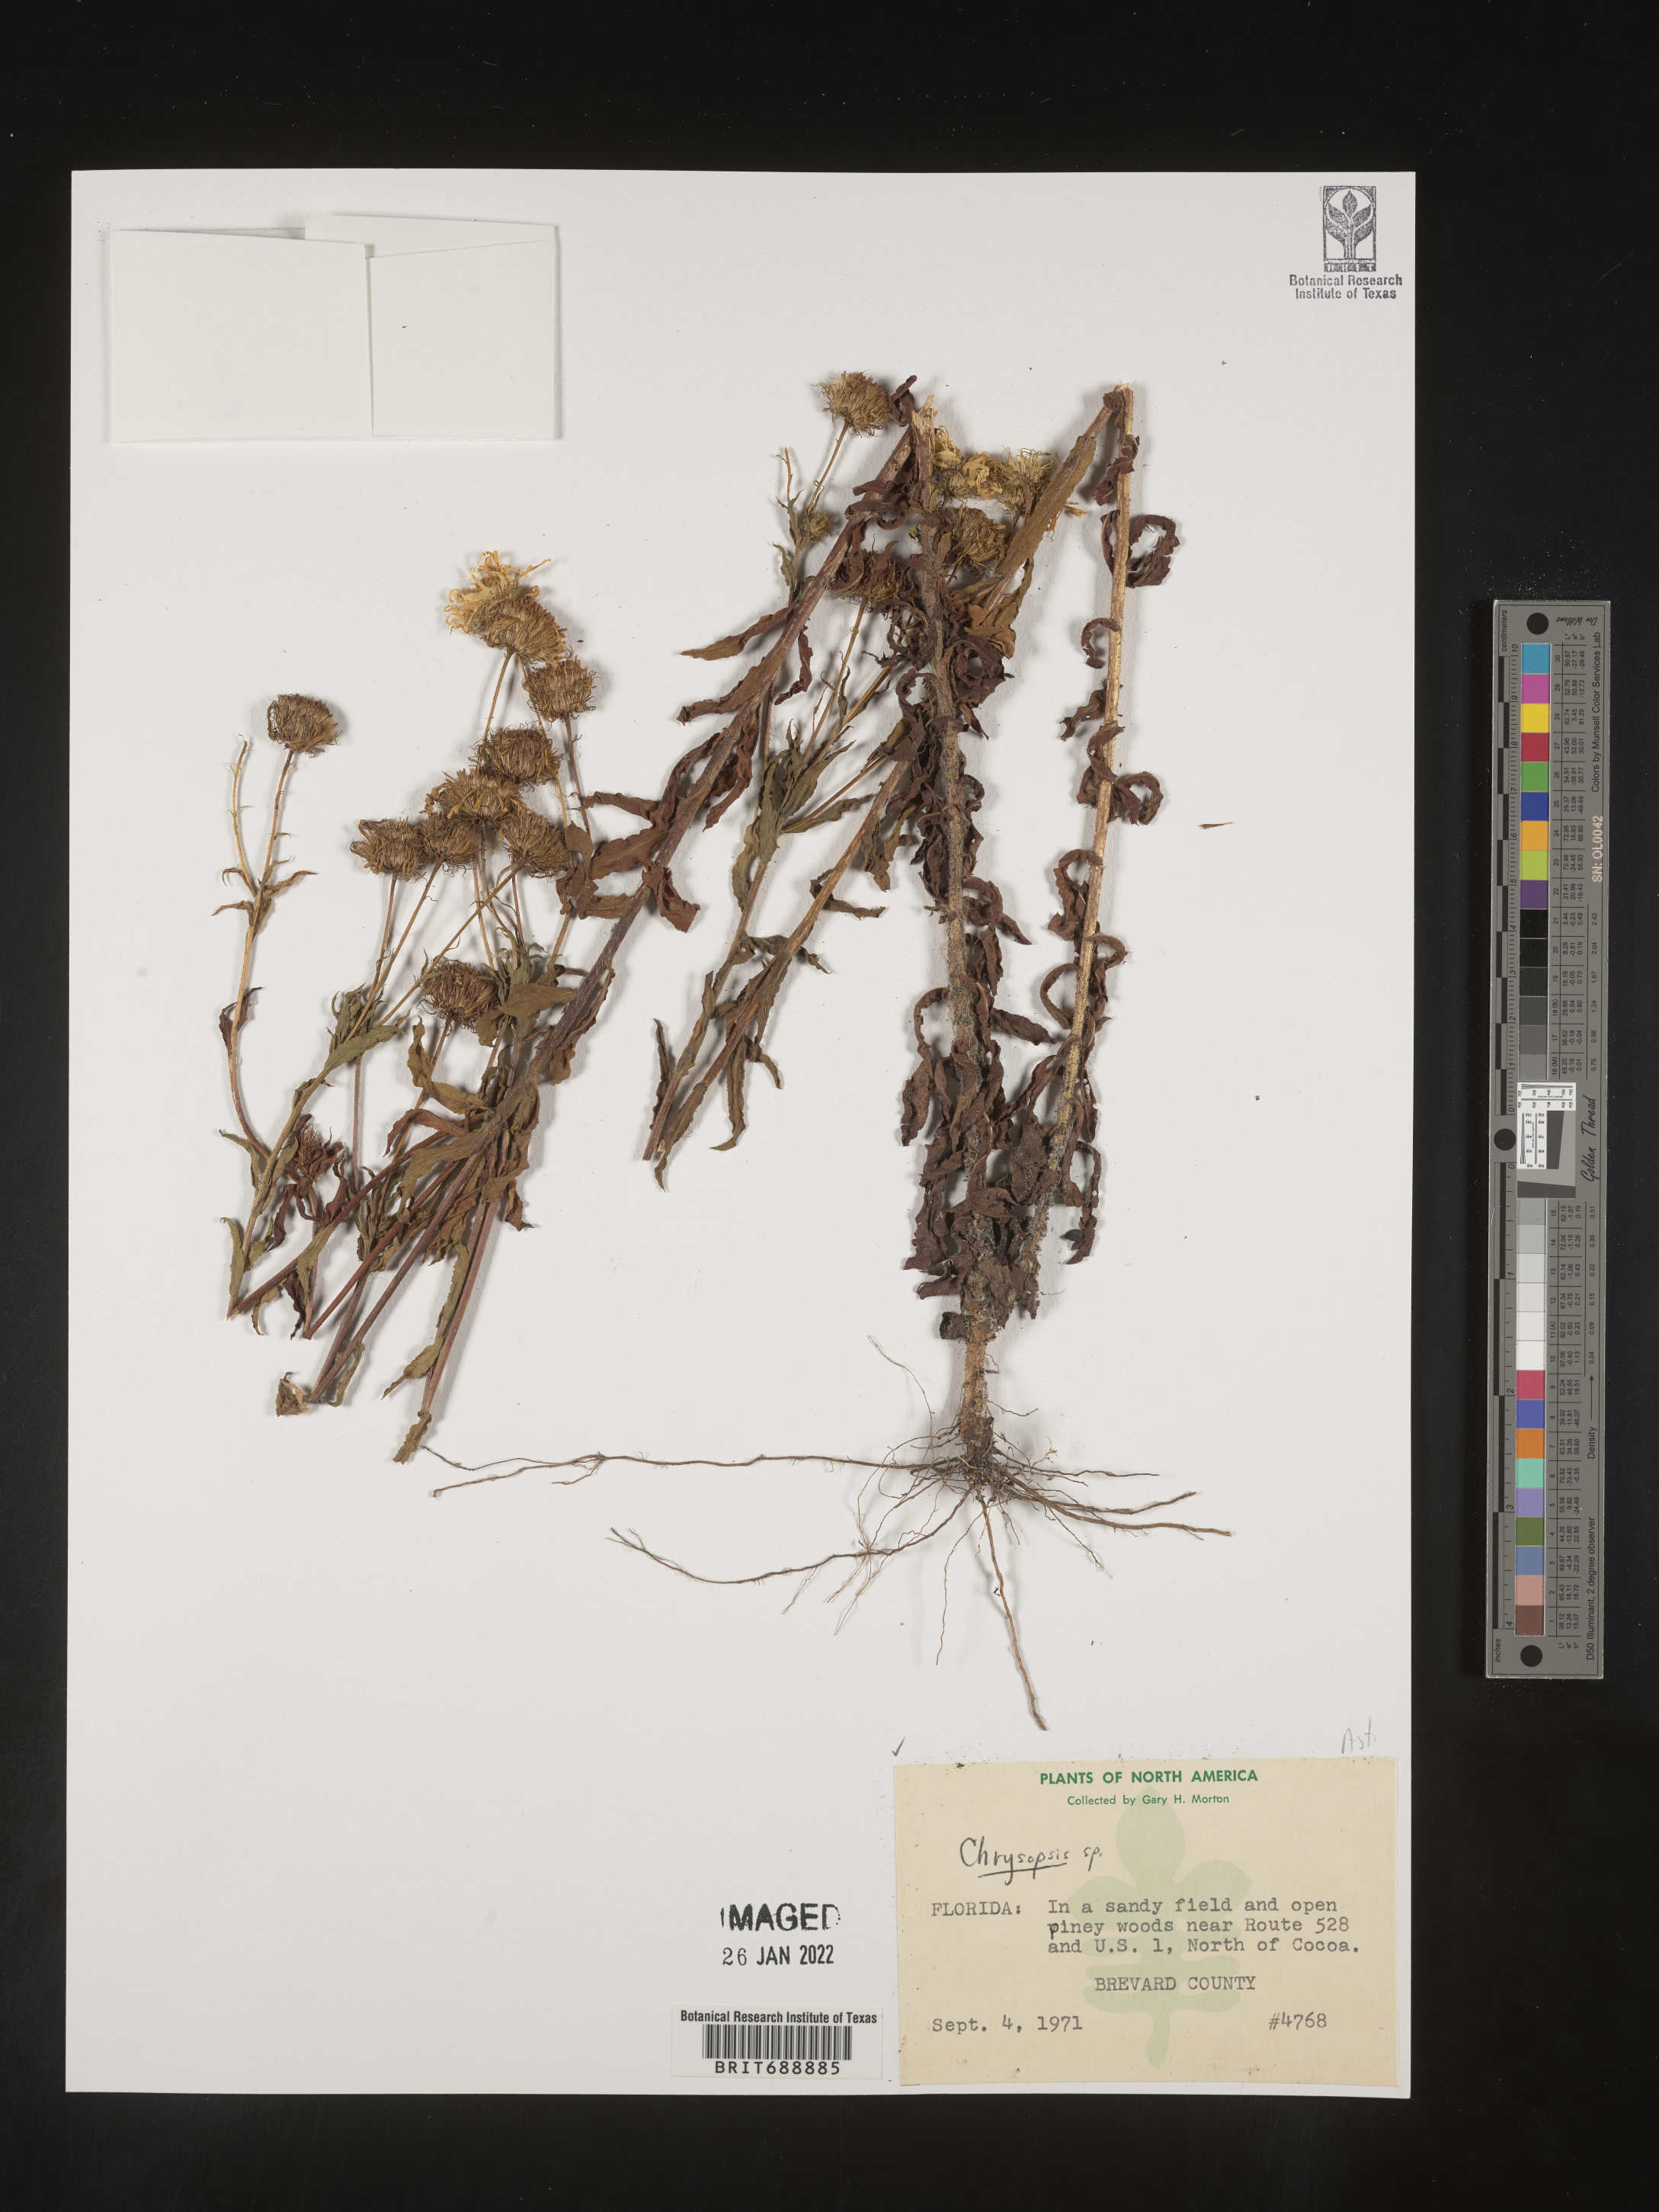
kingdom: Plantae
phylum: Tracheophyta
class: Magnoliopsida
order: Asterales
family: Asteraceae
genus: Chrysopsis
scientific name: Chrysopsis
